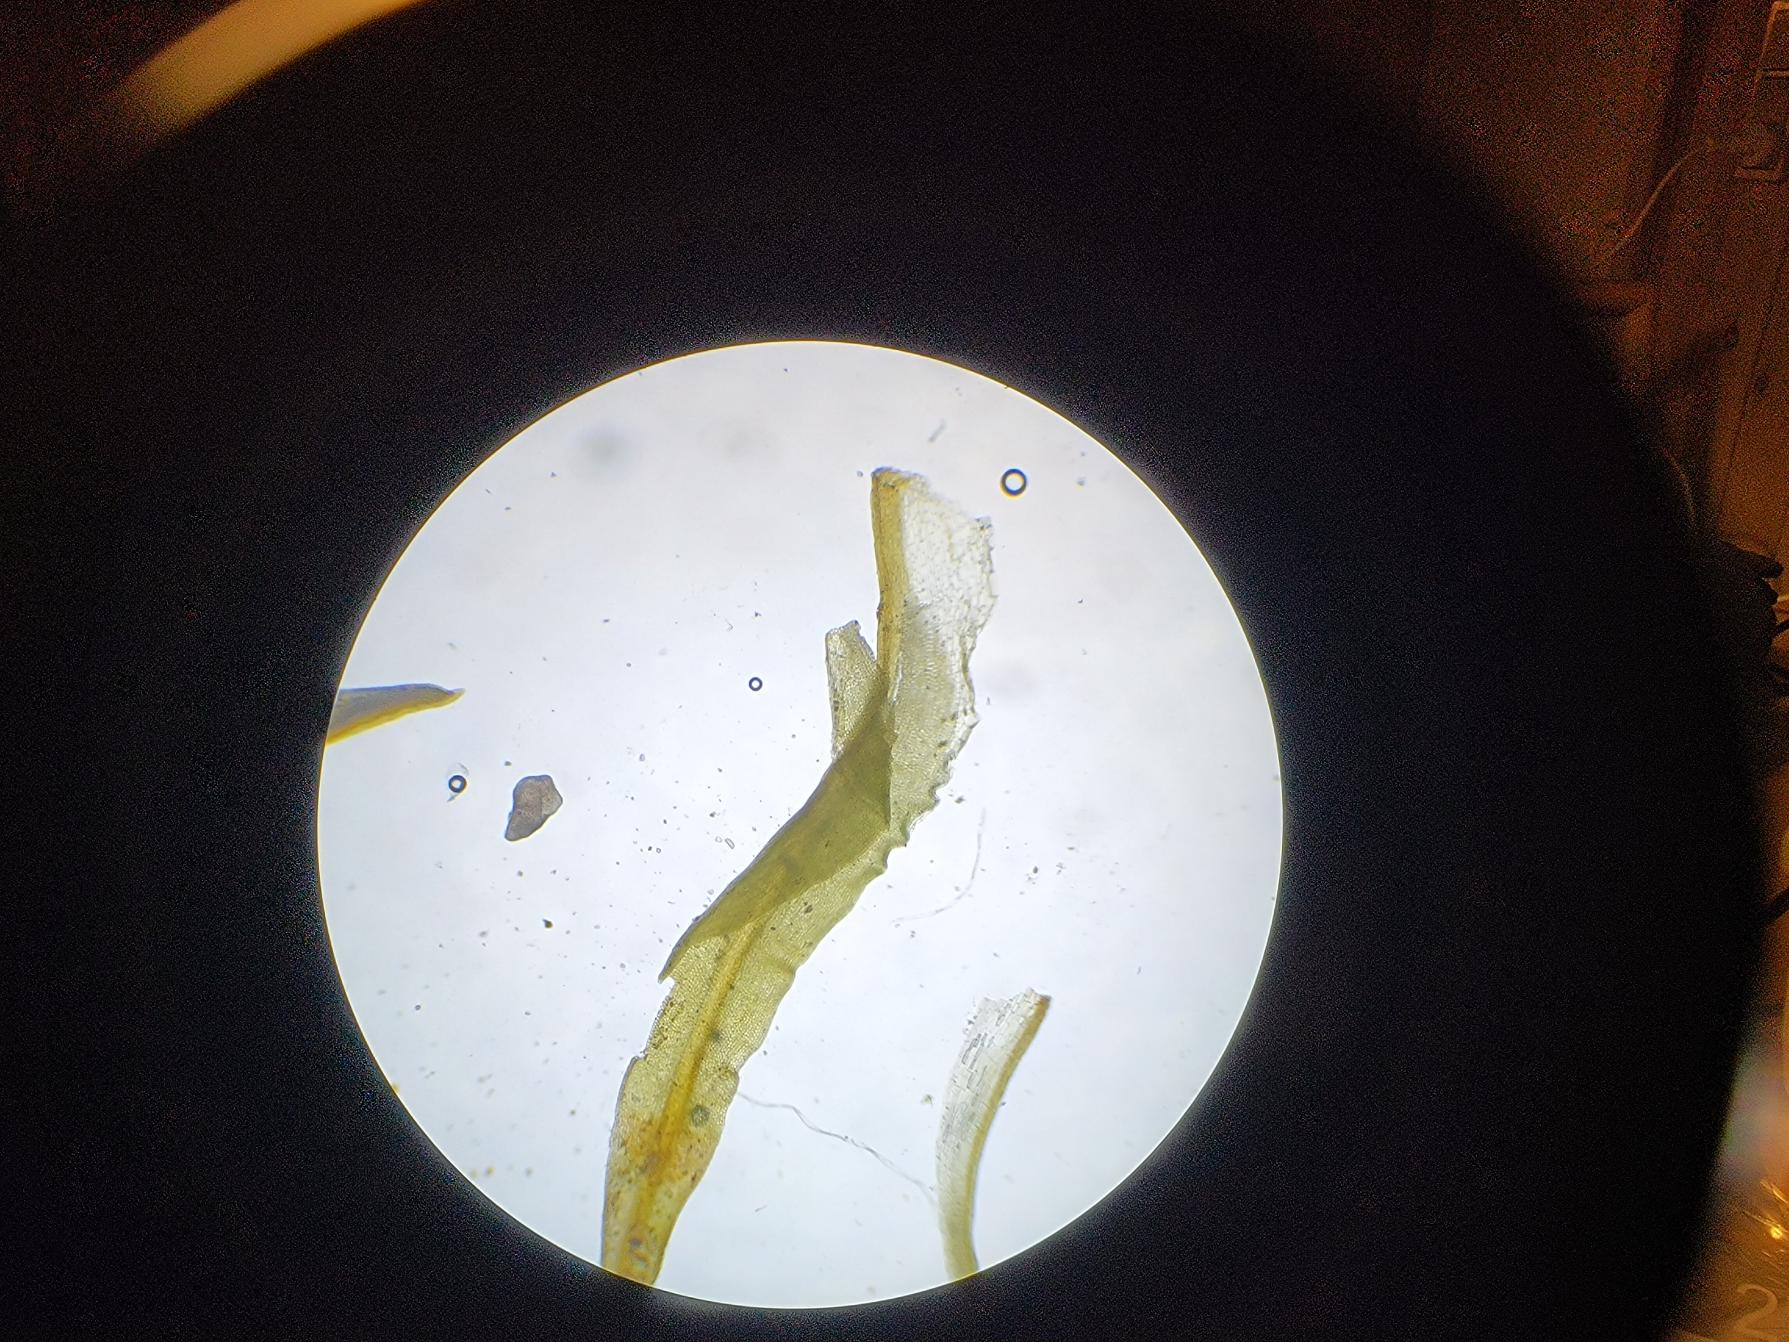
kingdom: Plantae
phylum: Bryophyta
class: Bryopsida
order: Pottiales
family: Pottiaceae
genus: Tortella
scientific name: Tortella tortuosa
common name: Kruset snoblad
